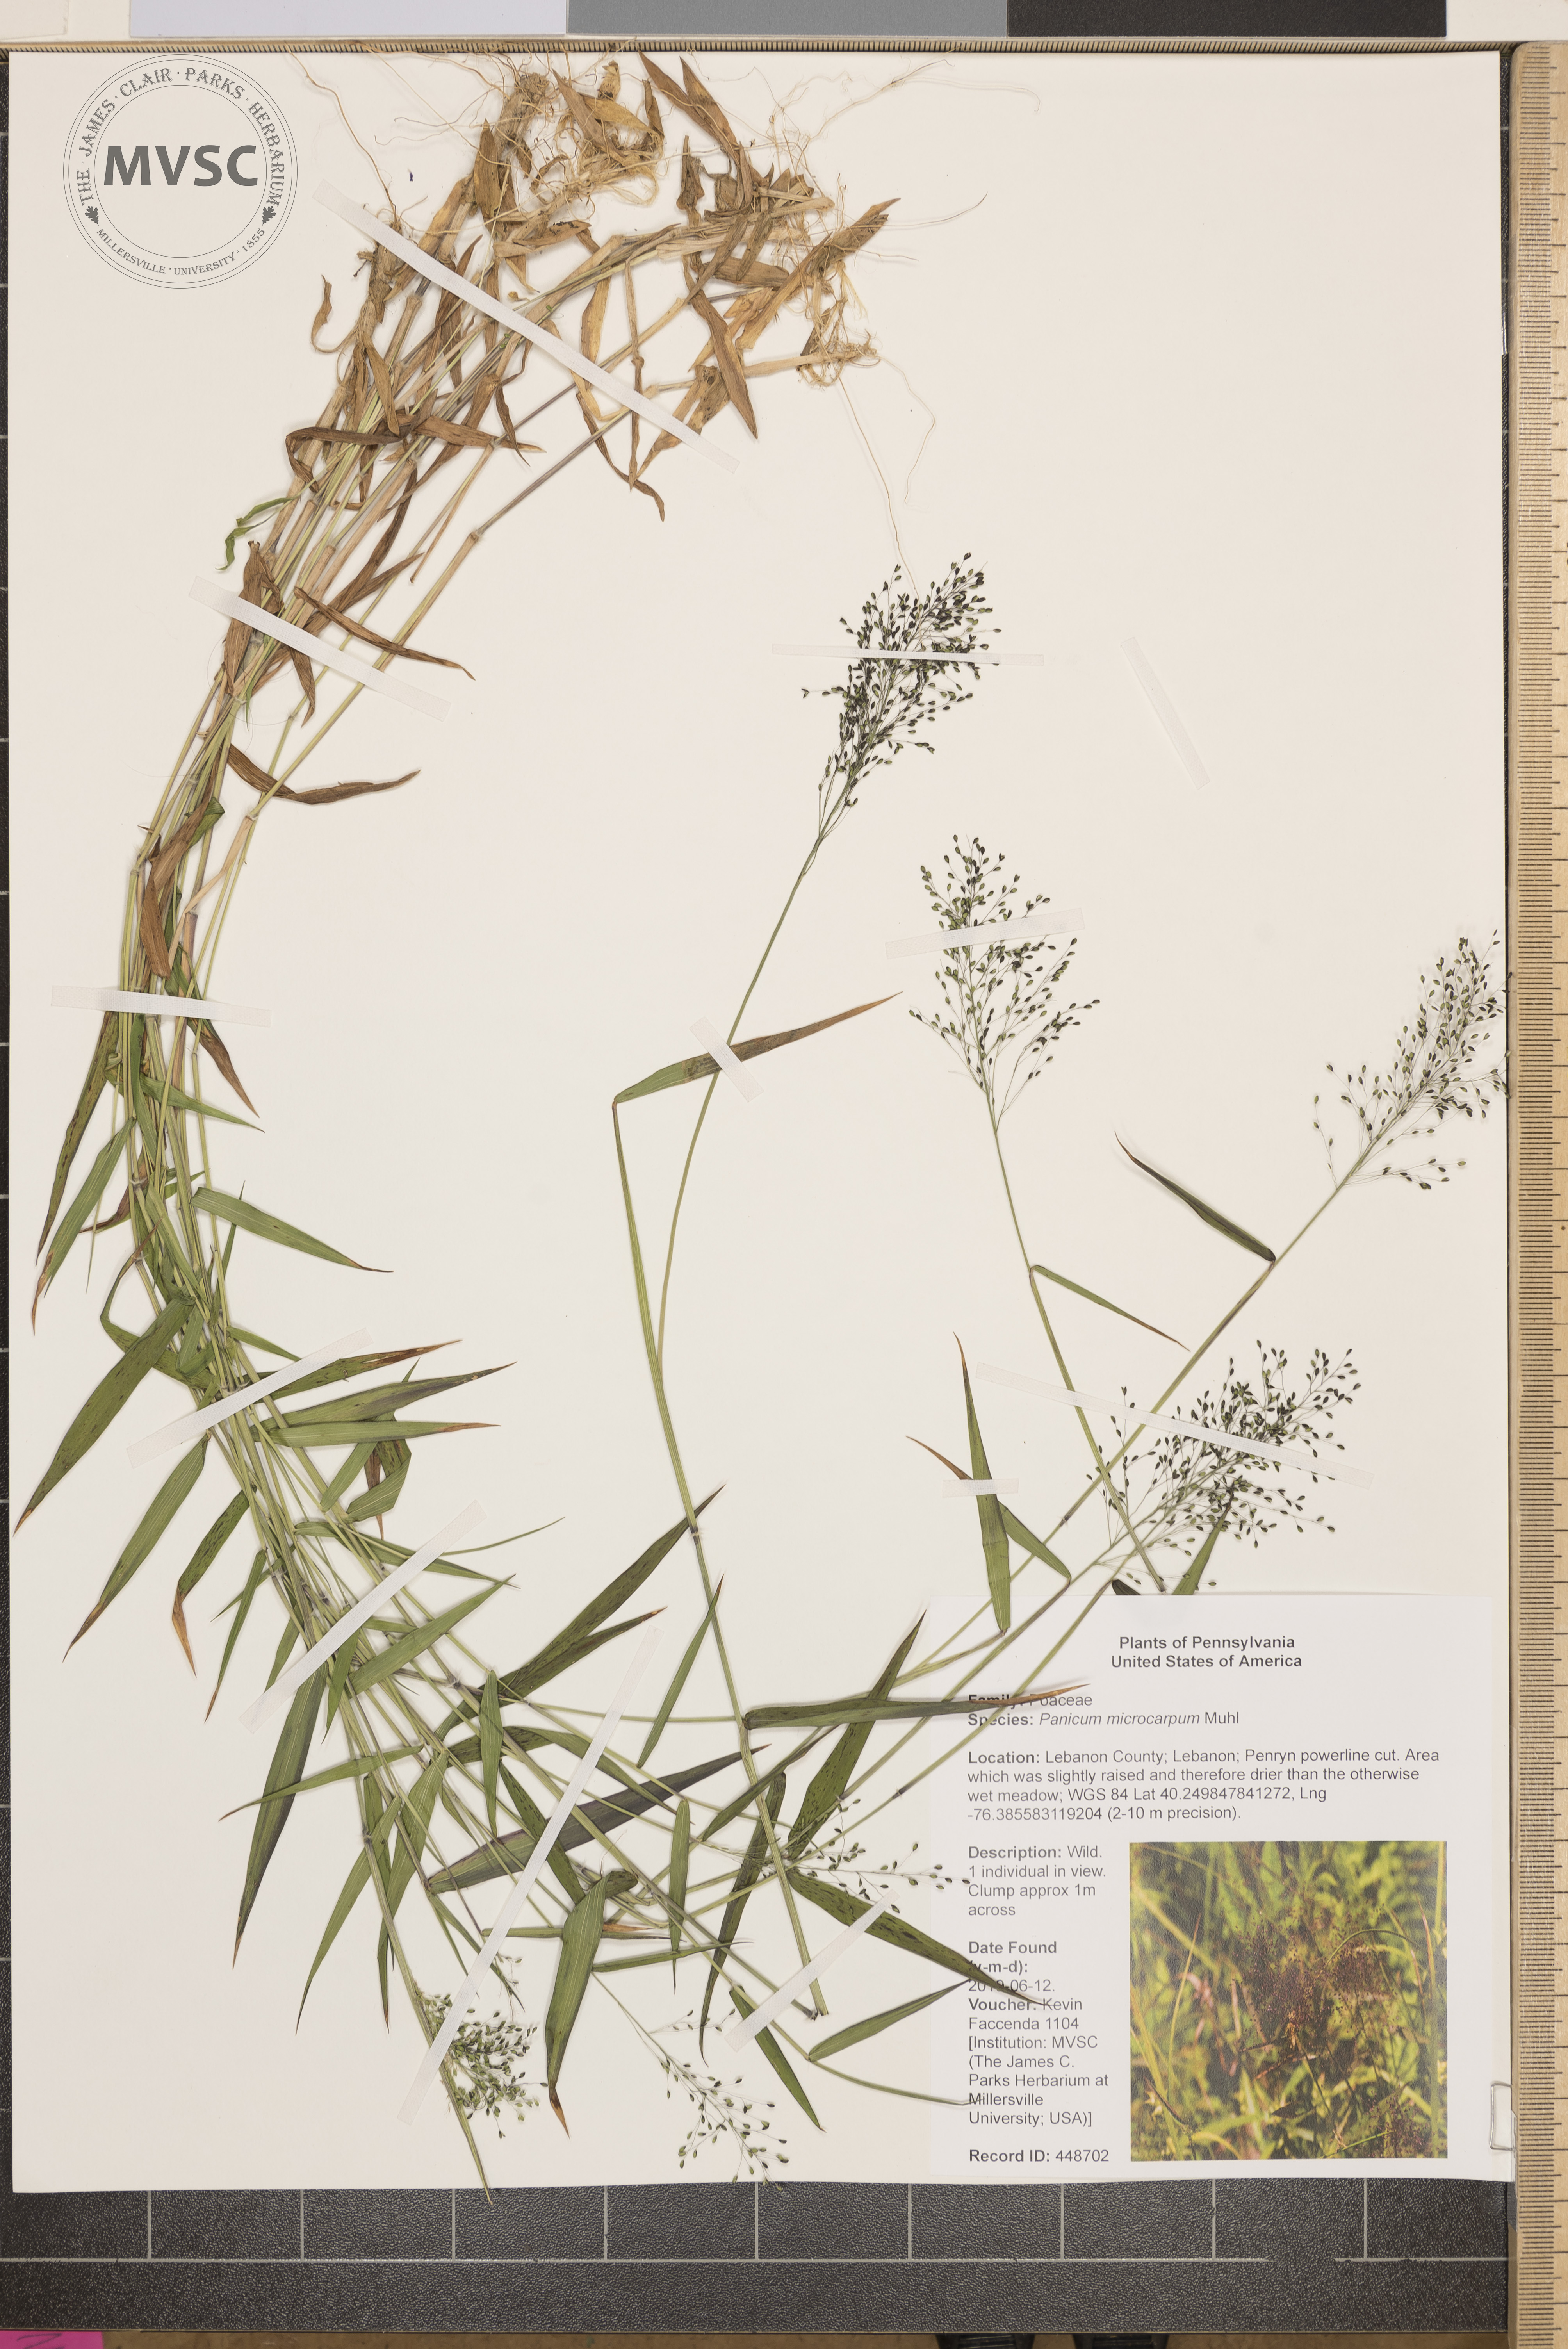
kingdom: Plantae
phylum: Tracheophyta
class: Liliopsida
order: Poales
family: Poaceae
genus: Dichanthelium
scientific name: Dichanthelium polyanthes
